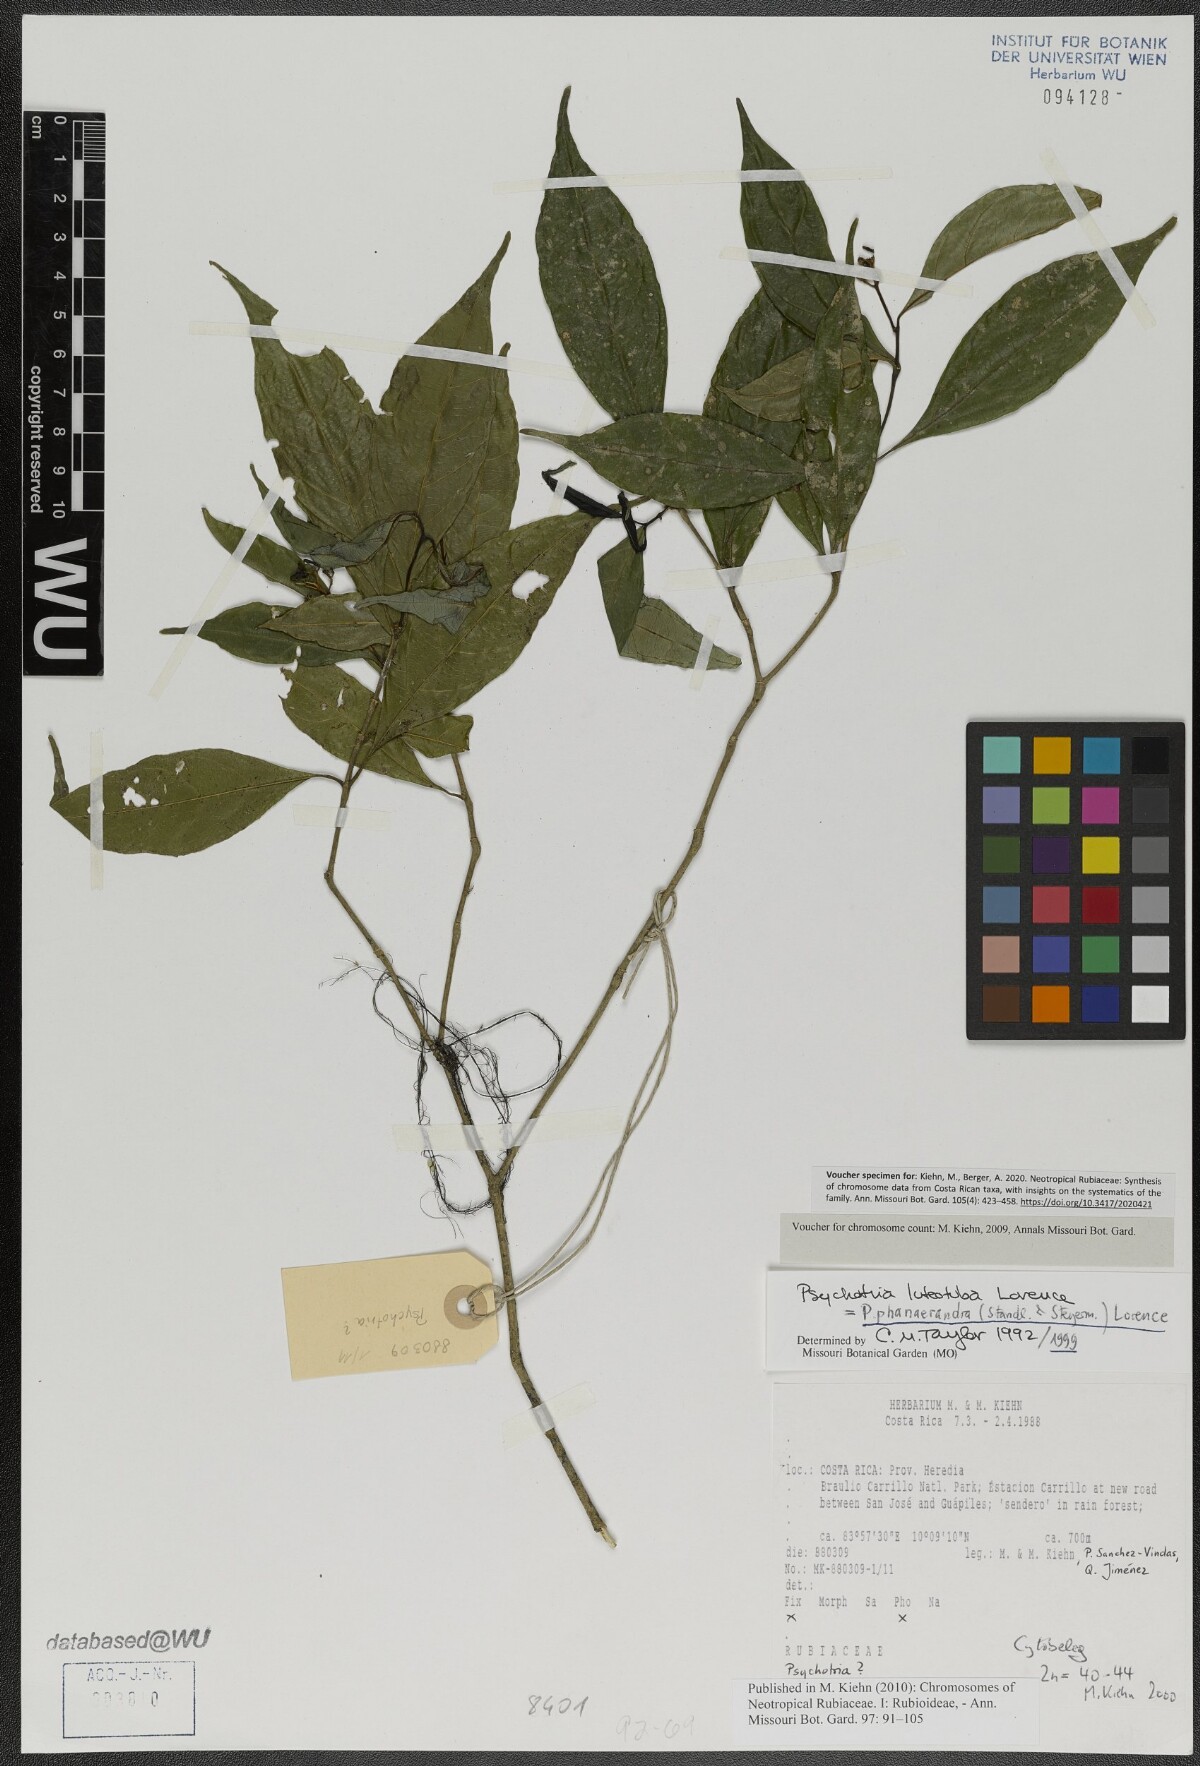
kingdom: Plantae
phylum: Tracheophyta
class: Magnoliopsida
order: Gentianales
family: Rubiaceae
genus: Palicourea
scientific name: Palicourea phanerandra
